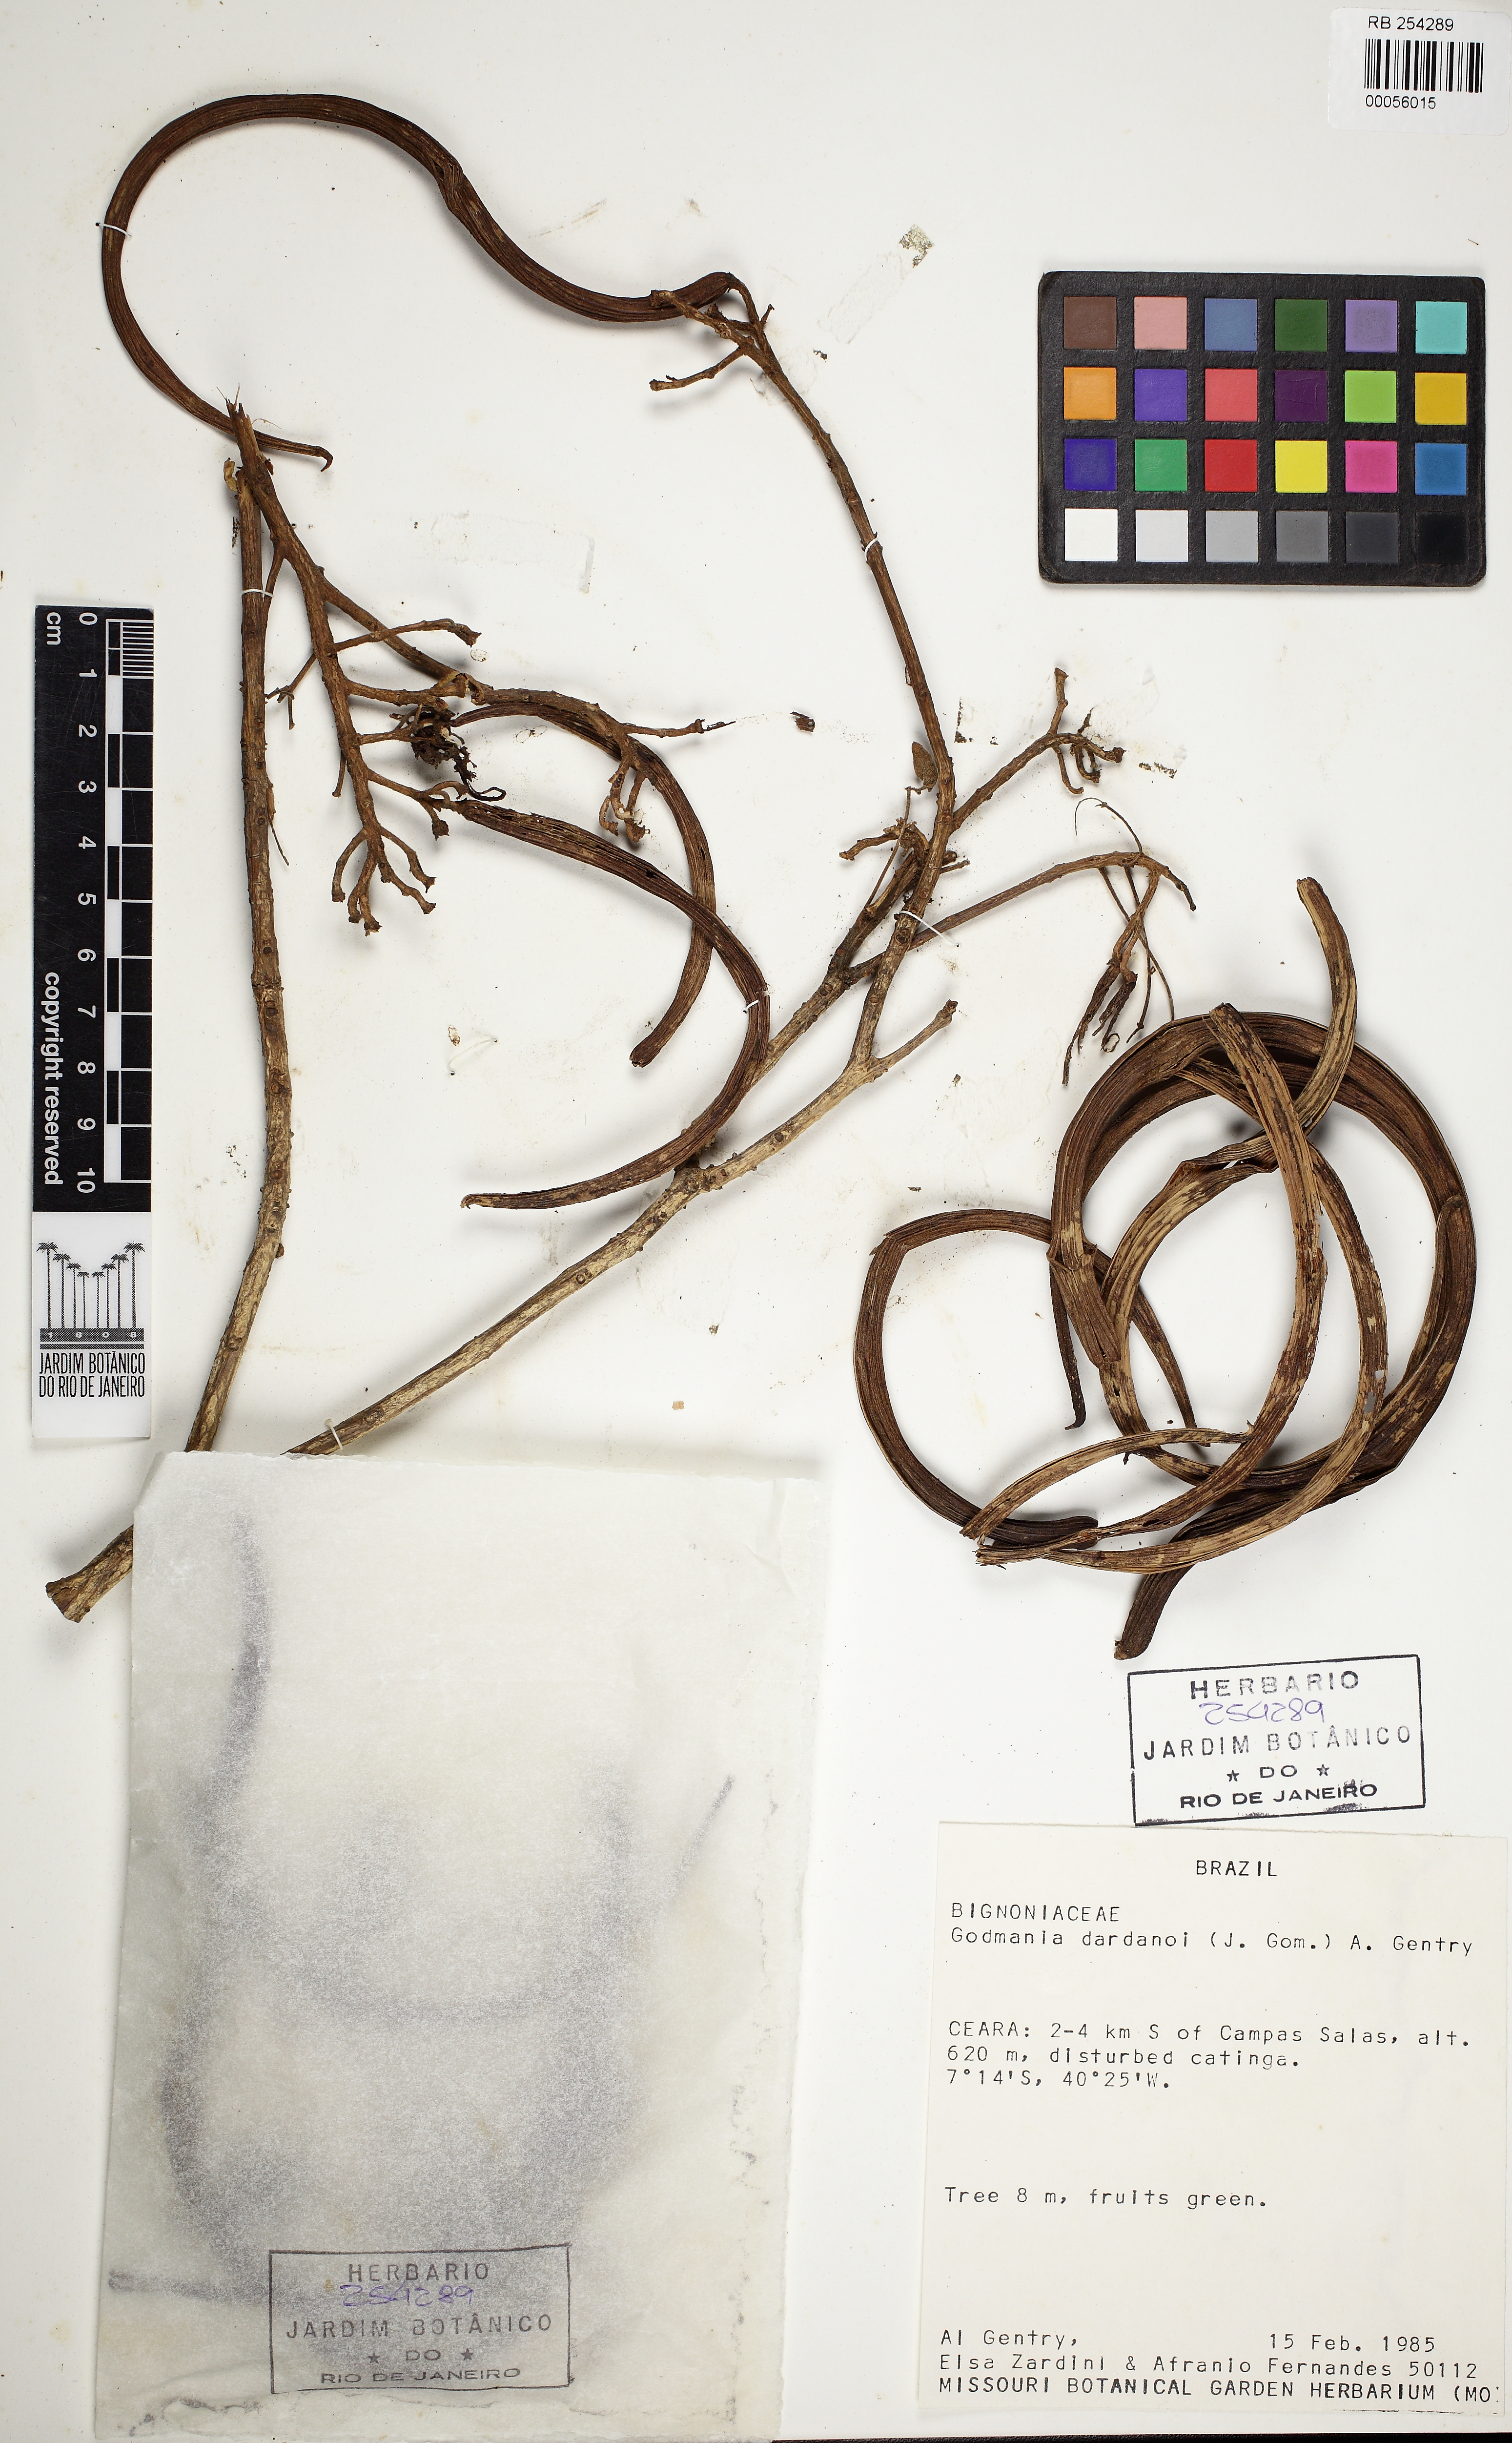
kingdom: Plantae
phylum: Tracheophyta
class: Magnoliopsida
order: Lamiales
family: Bignoniaceae
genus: Godmania
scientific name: Godmania dardanoi
